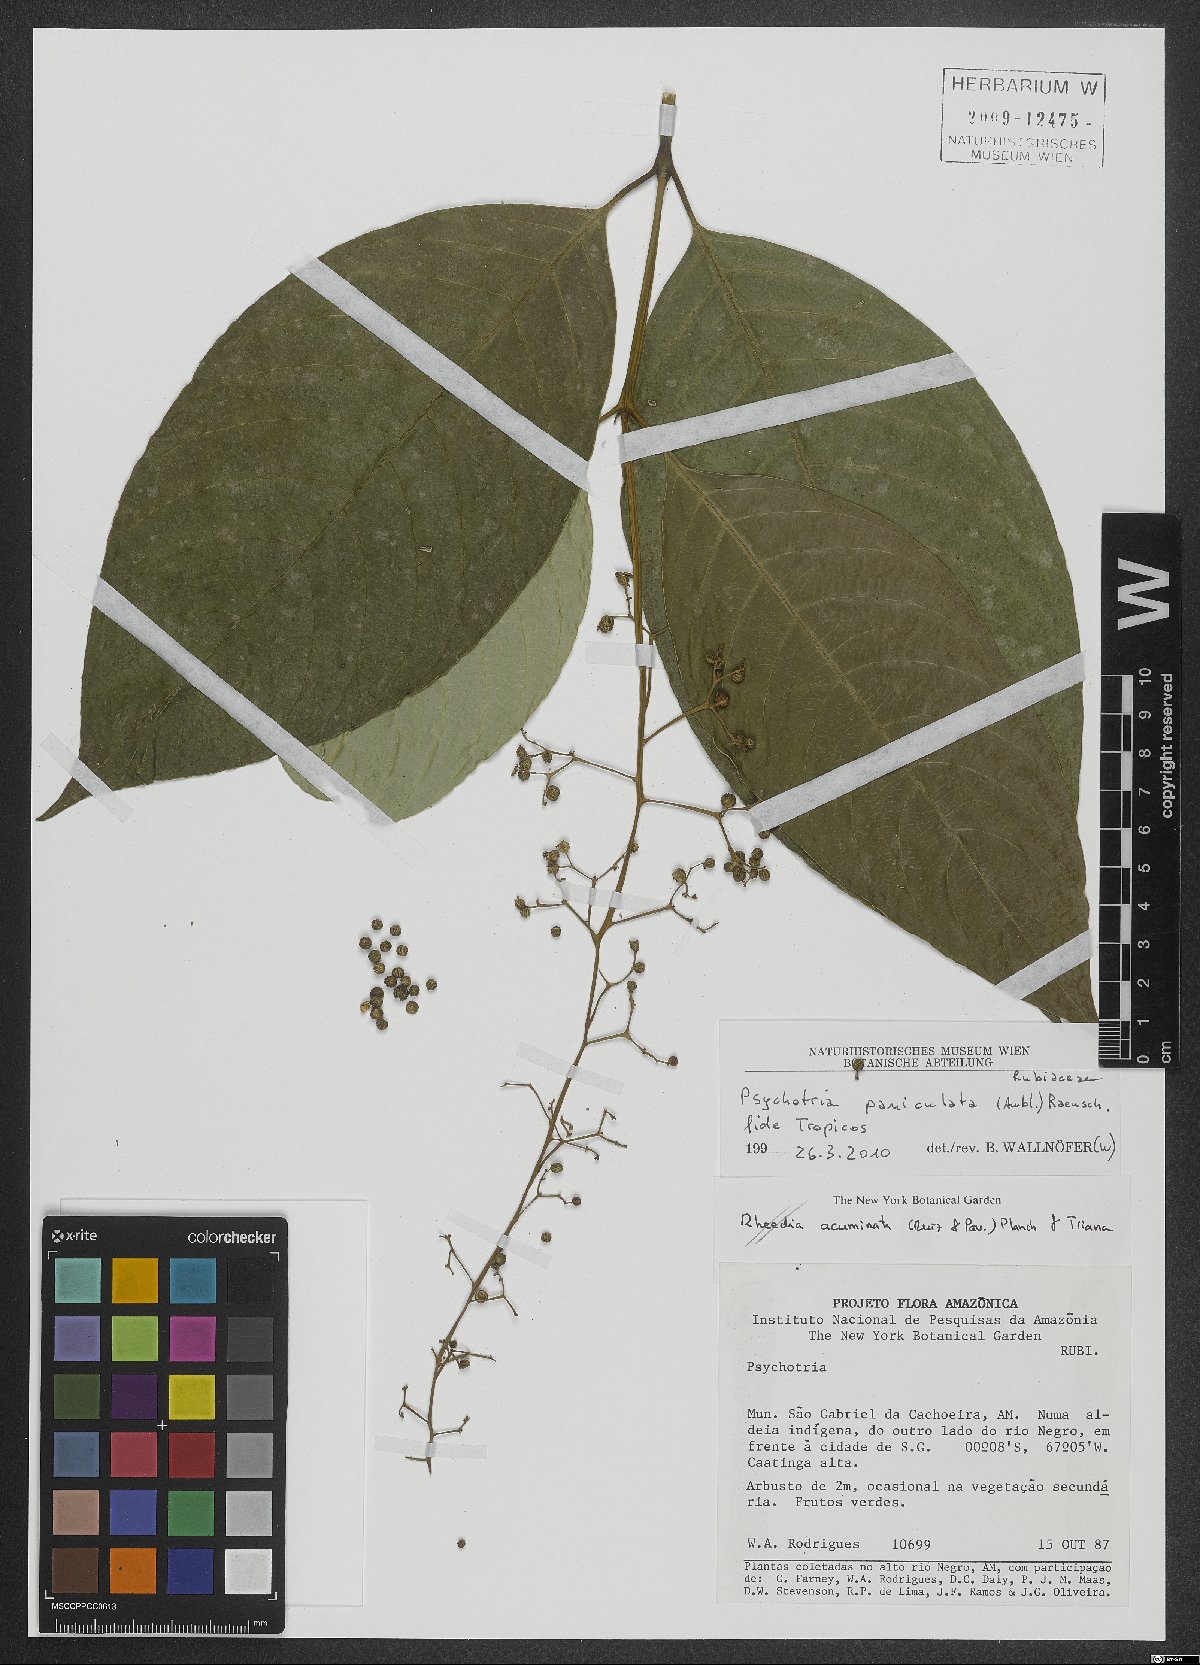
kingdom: Plantae
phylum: Tracheophyta
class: Magnoliopsida
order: Gentianales
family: Rubiaceae
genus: Palicourea
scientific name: Palicourea campyloneura
